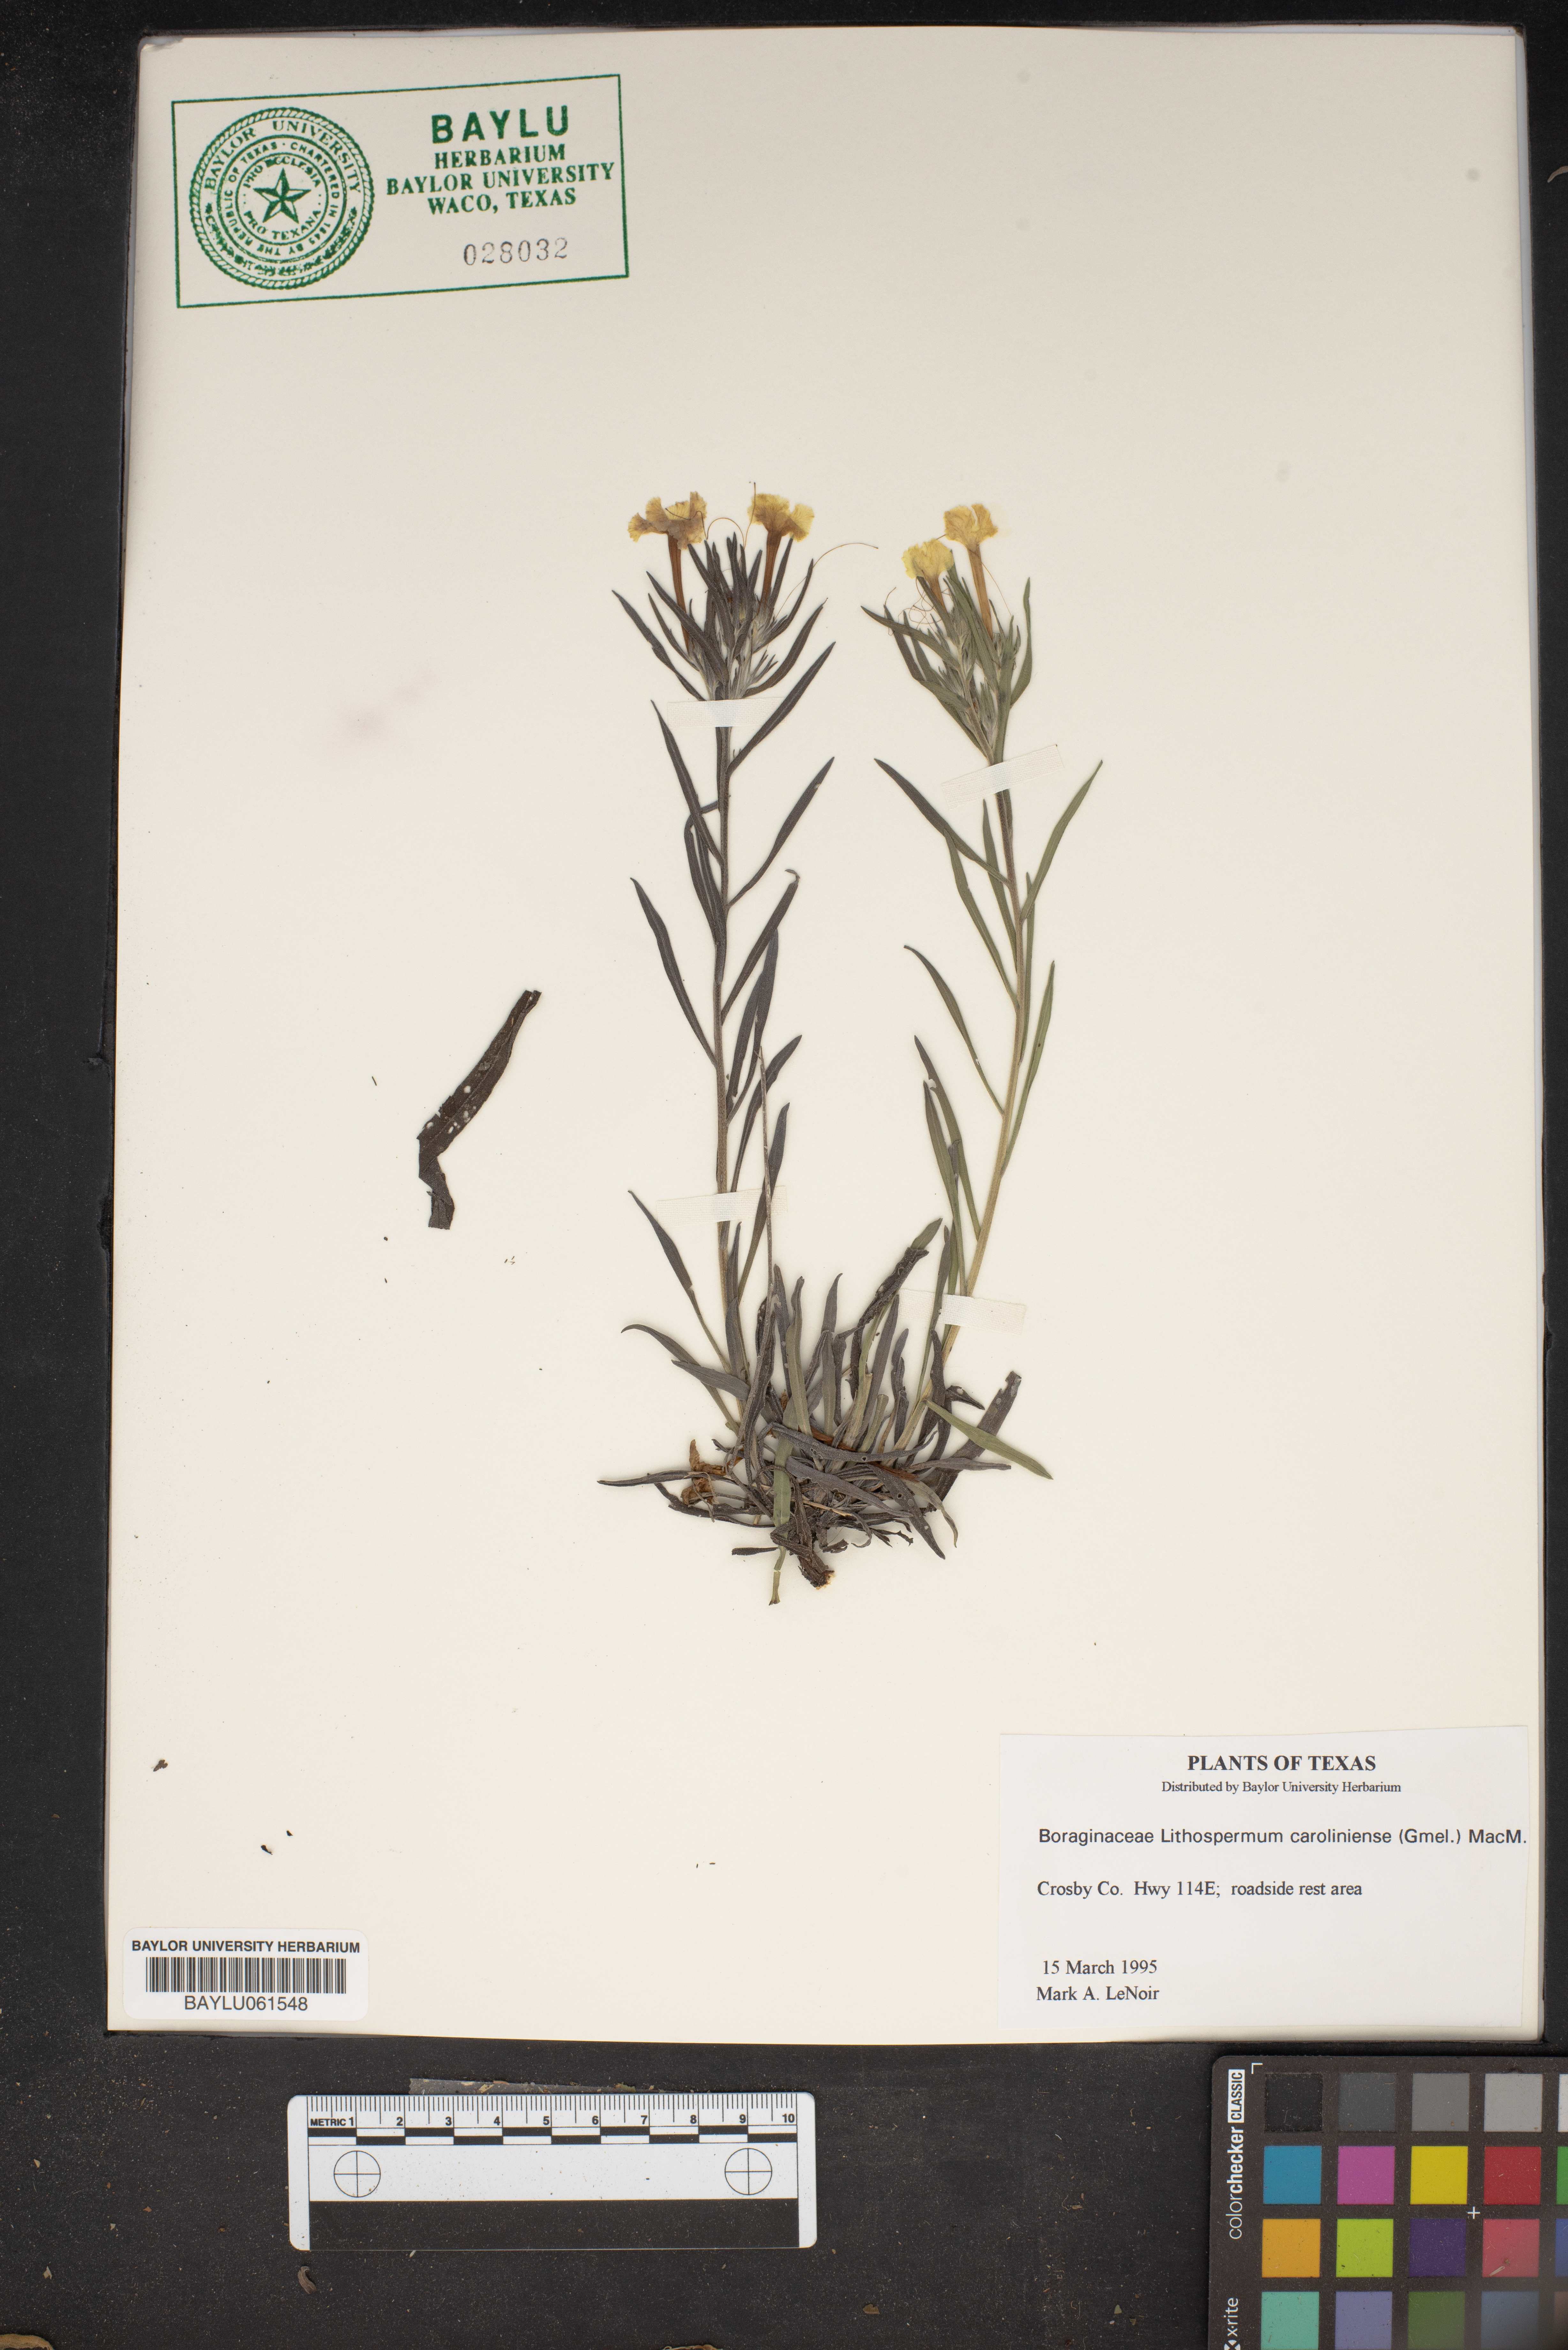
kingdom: Plantae
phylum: Tracheophyta
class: Magnoliopsida
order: Boraginales
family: Boraginaceae
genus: Lithospermum
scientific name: Lithospermum caroliniense
